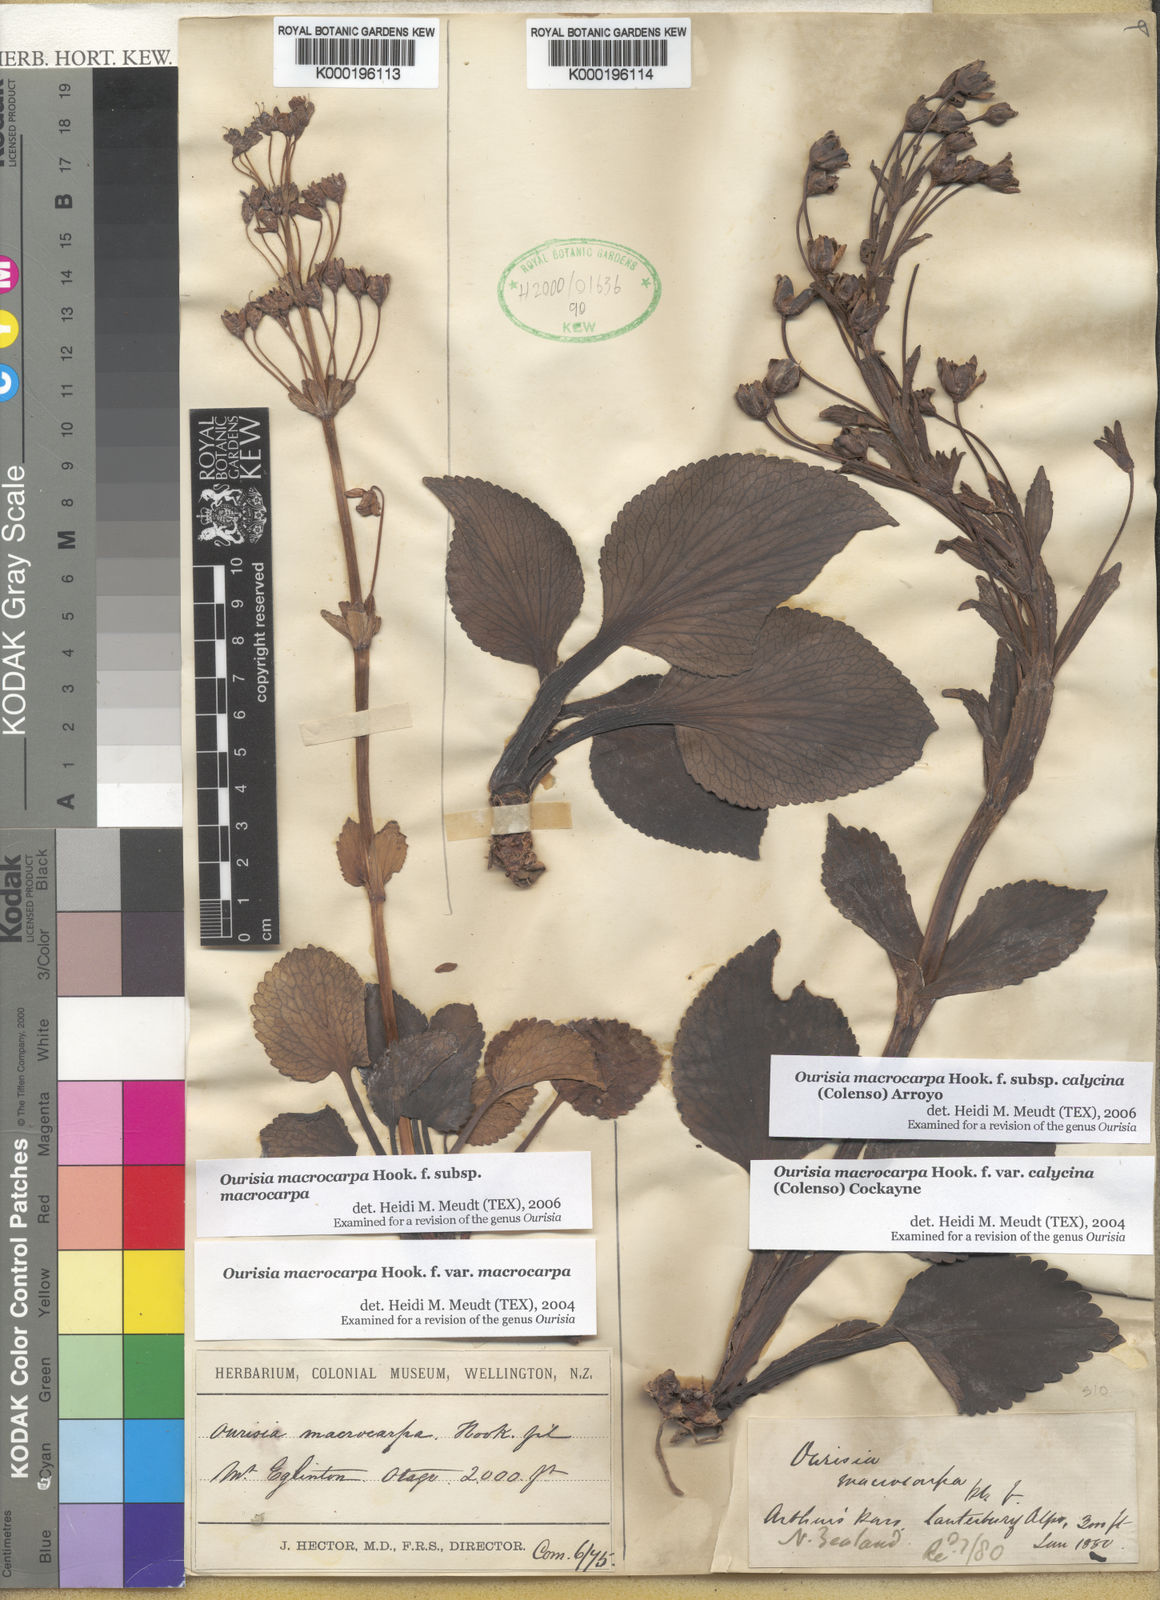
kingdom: Plantae
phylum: Tracheophyta
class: Magnoliopsida
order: Lamiales
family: Plantaginaceae
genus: Ourisia
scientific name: Ourisia calycina
